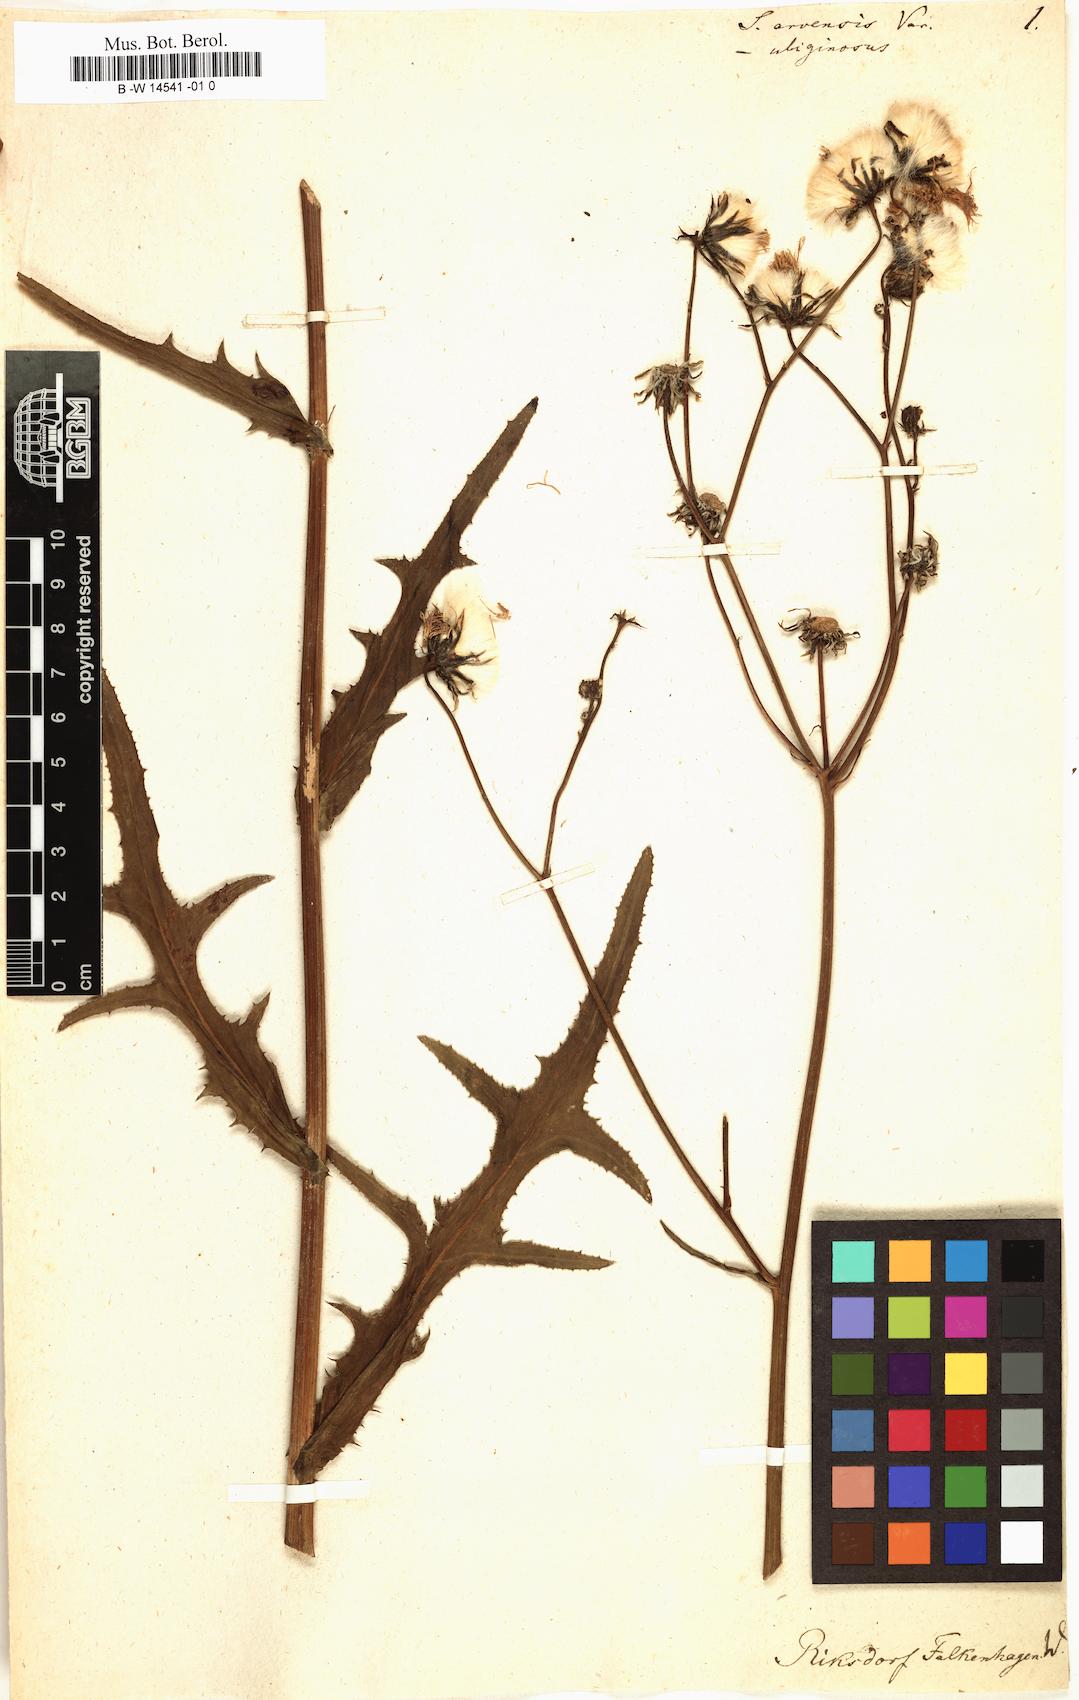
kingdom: Plantae
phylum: Tracheophyta
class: Magnoliopsida
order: Asterales
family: Asteraceae
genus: Sonchus
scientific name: Sonchus arvensis
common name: Perennial sow-thistle
